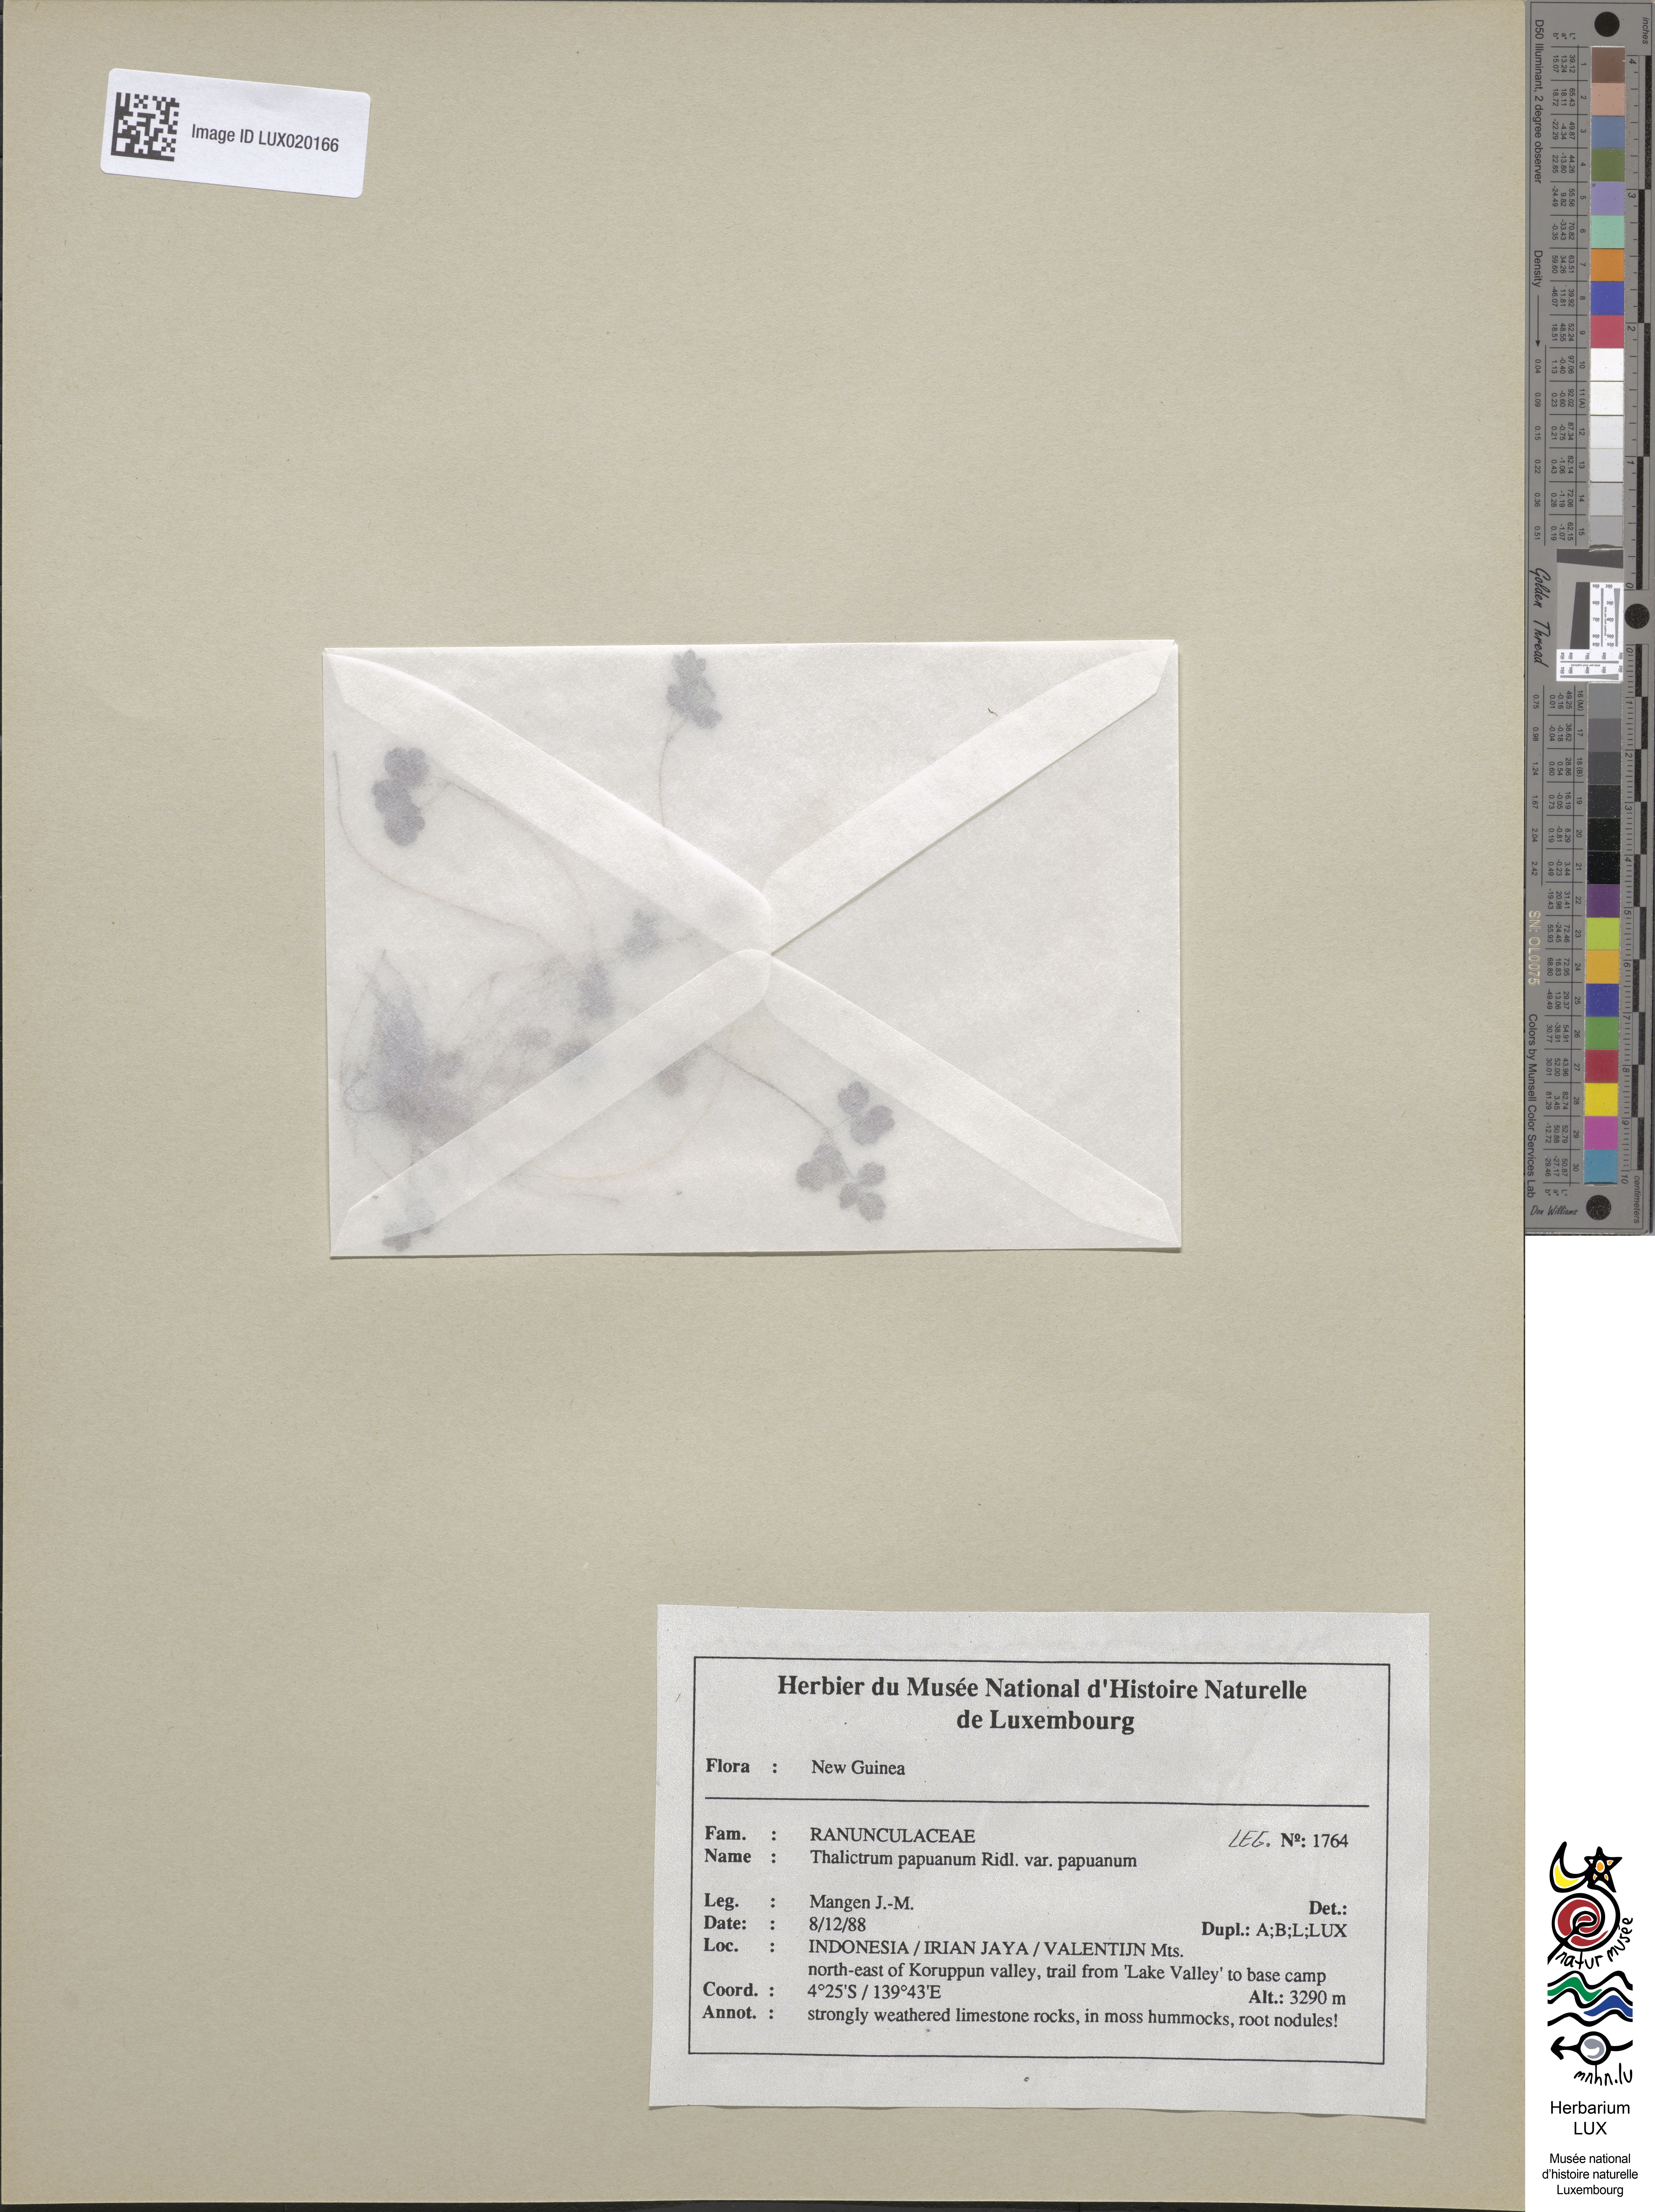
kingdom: Plantae
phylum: Tracheophyta
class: Magnoliopsida
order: Ranunculales
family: Ranunculaceae
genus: Thalictrum
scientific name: Thalictrum papuanum
